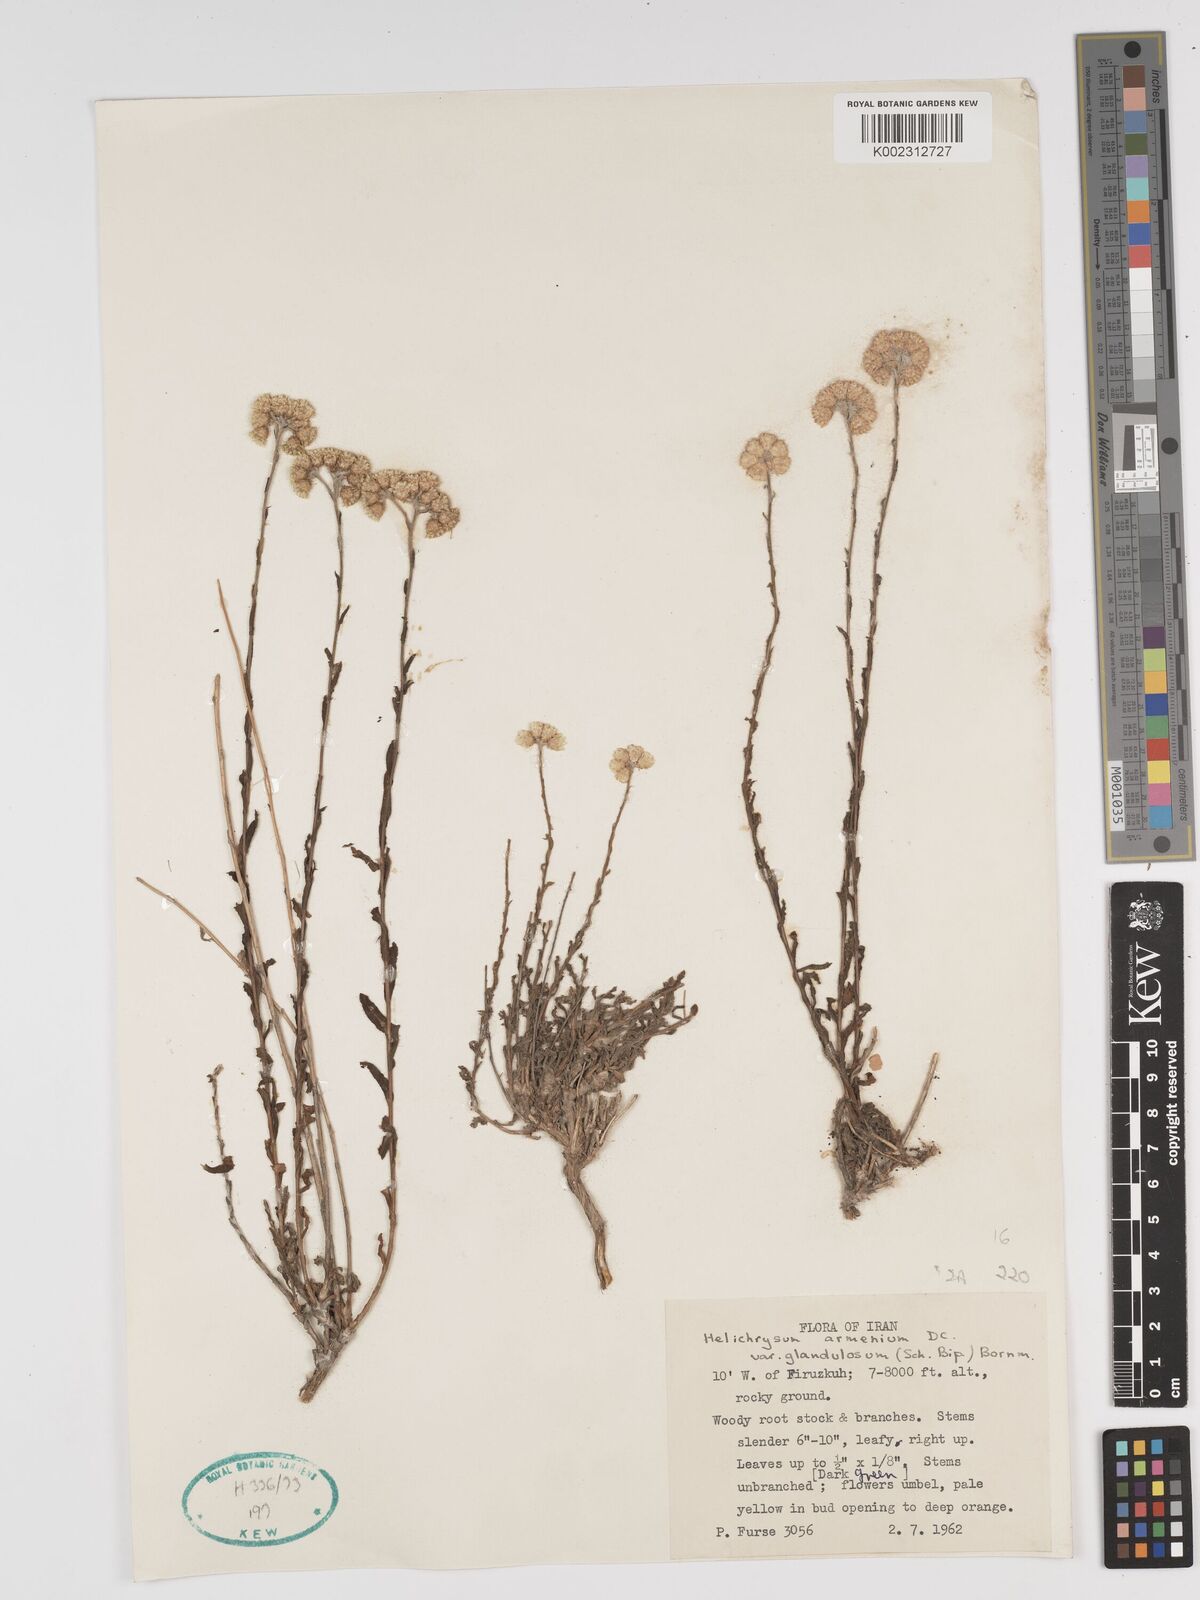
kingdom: Plantae
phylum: Tracheophyta
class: Magnoliopsida
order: Asterales
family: Asteraceae
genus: Helichrysum
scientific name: Helichrysum
